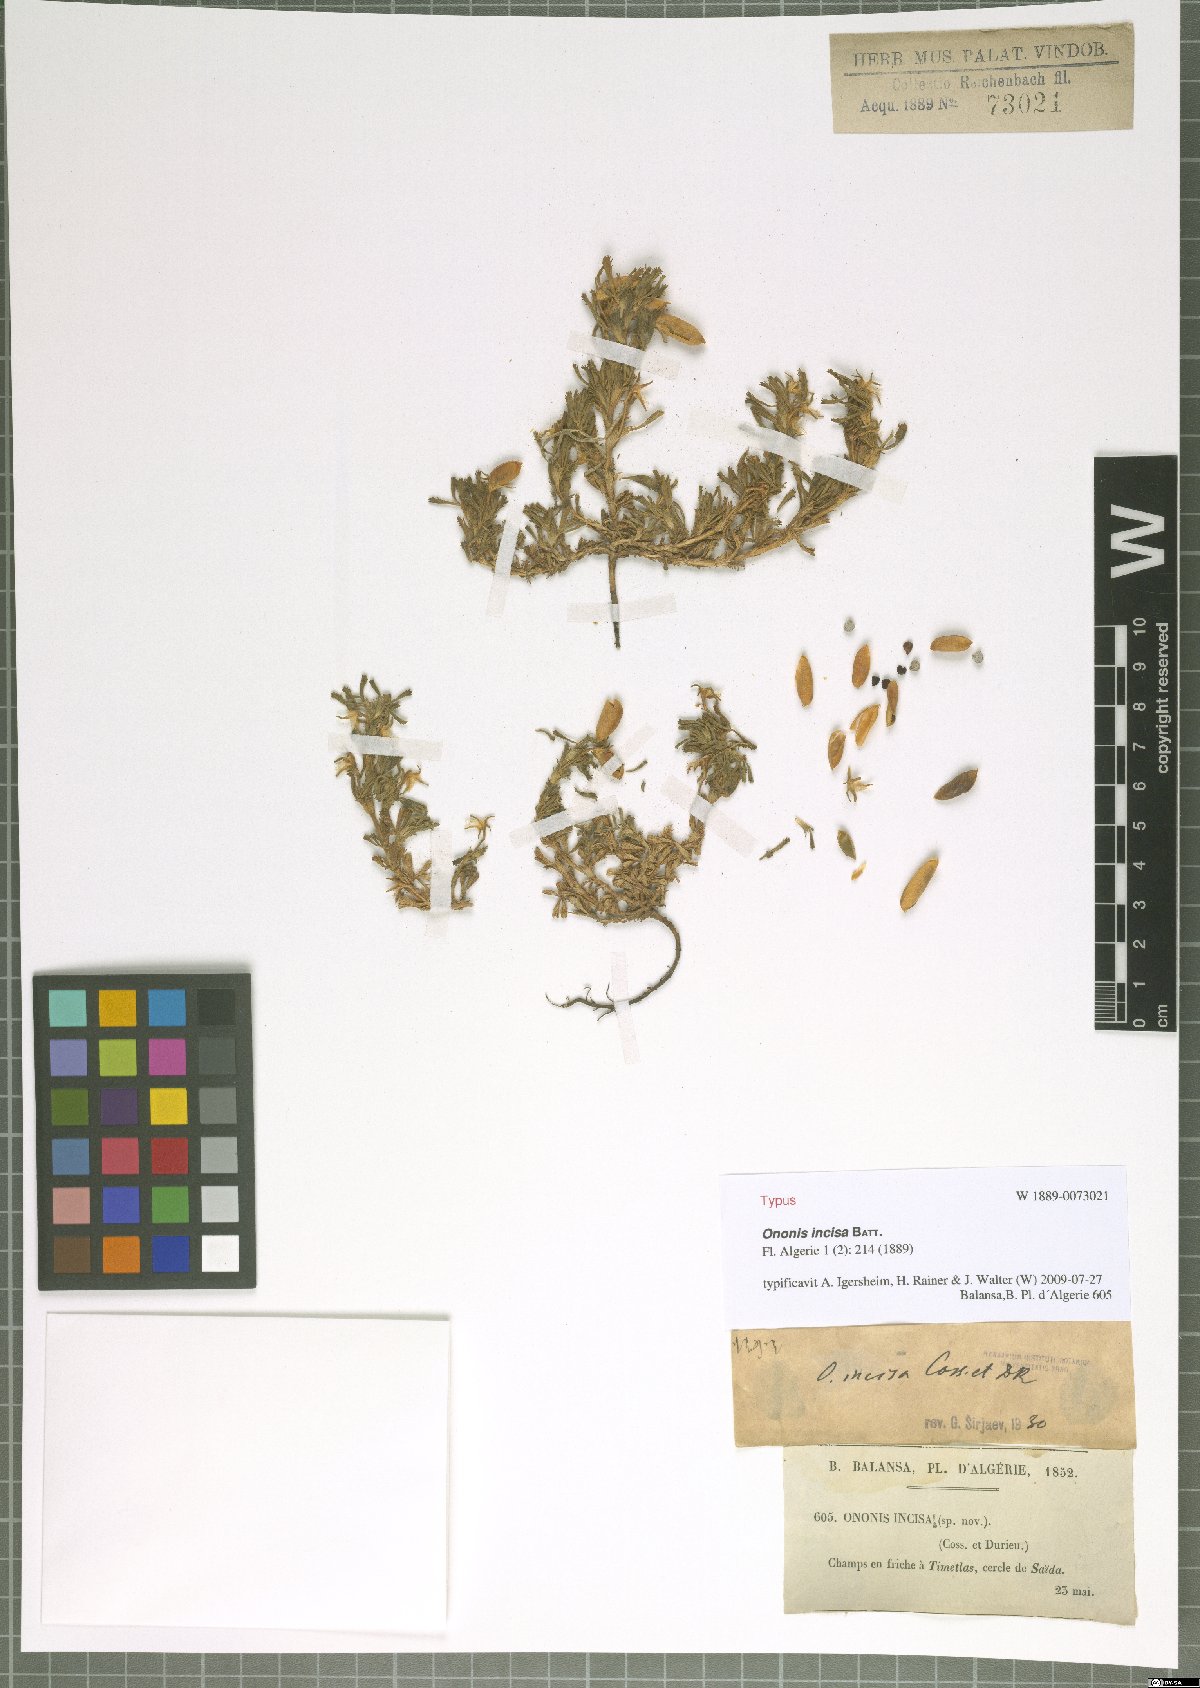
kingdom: Plantae
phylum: Tracheophyta
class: Magnoliopsida
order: Fabales
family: Fabaceae
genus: Ononis
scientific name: Ononis incisa
